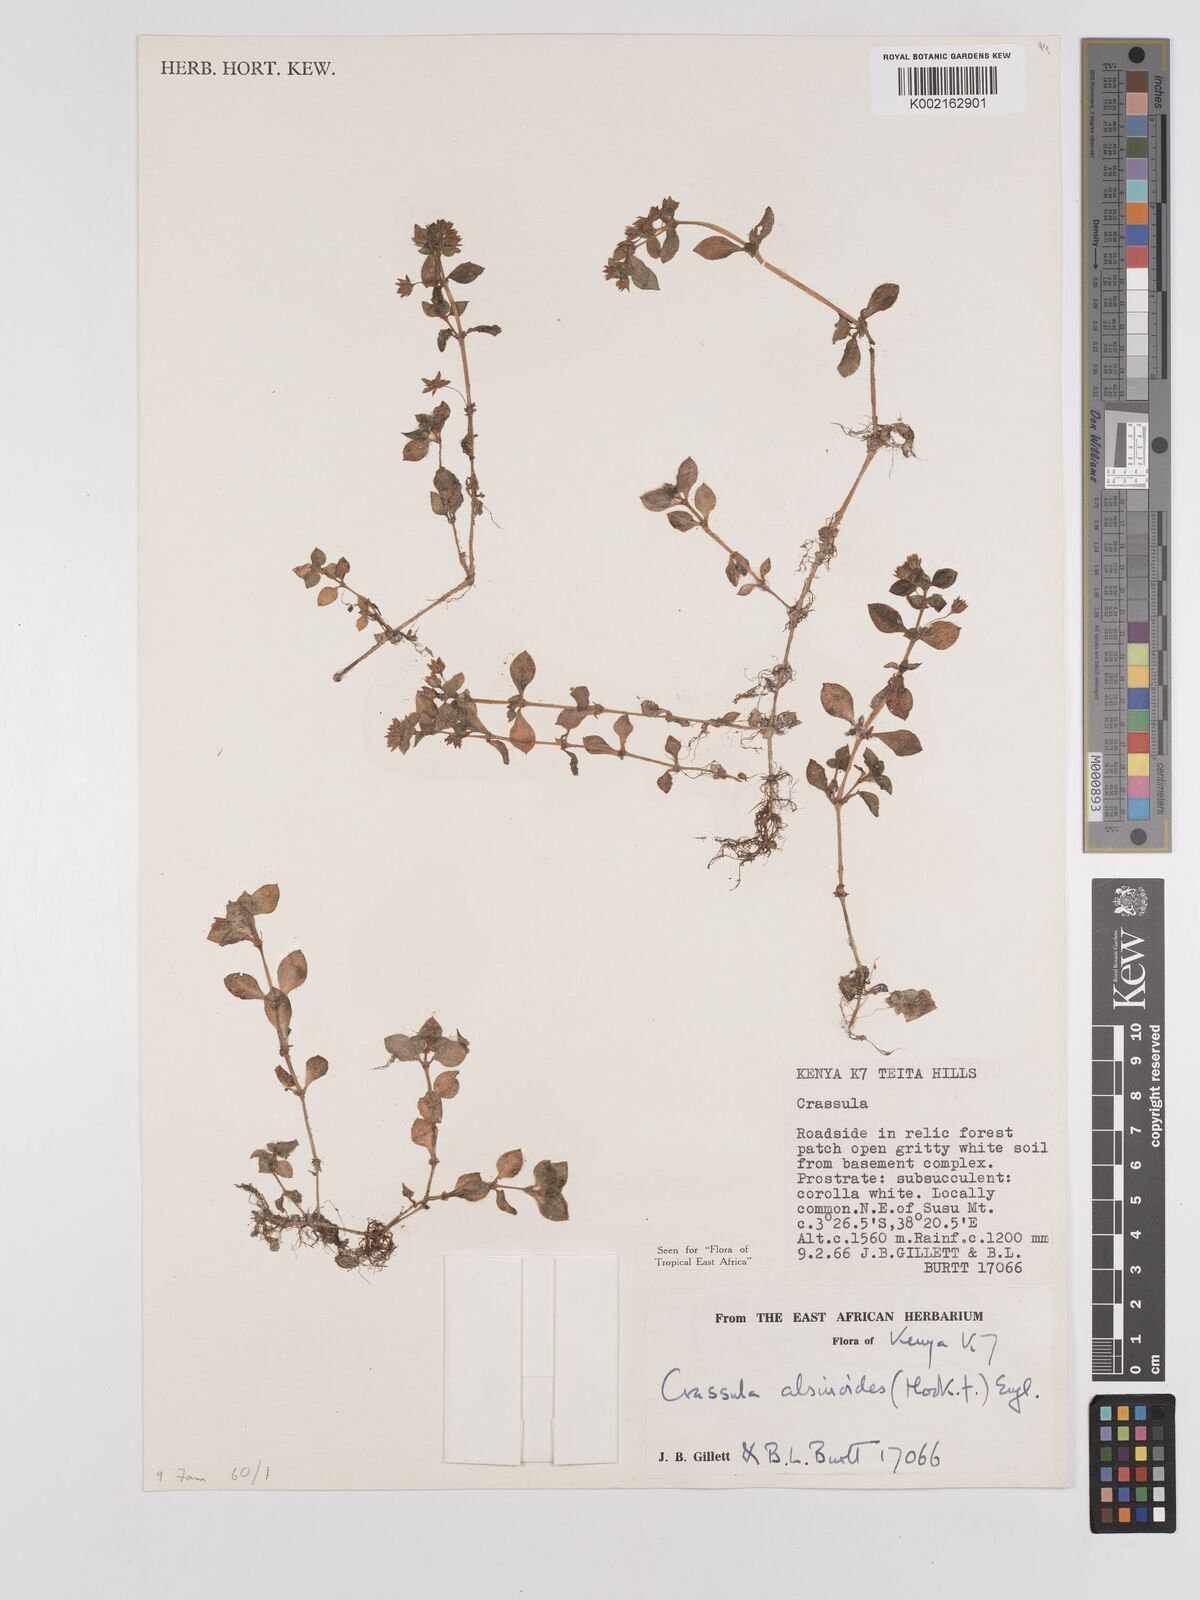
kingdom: Plantae
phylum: Tracheophyta
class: Magnoliopsida
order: Saxifragales
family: Crassulaceae
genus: Crassula
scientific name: Crassula alsinoides
